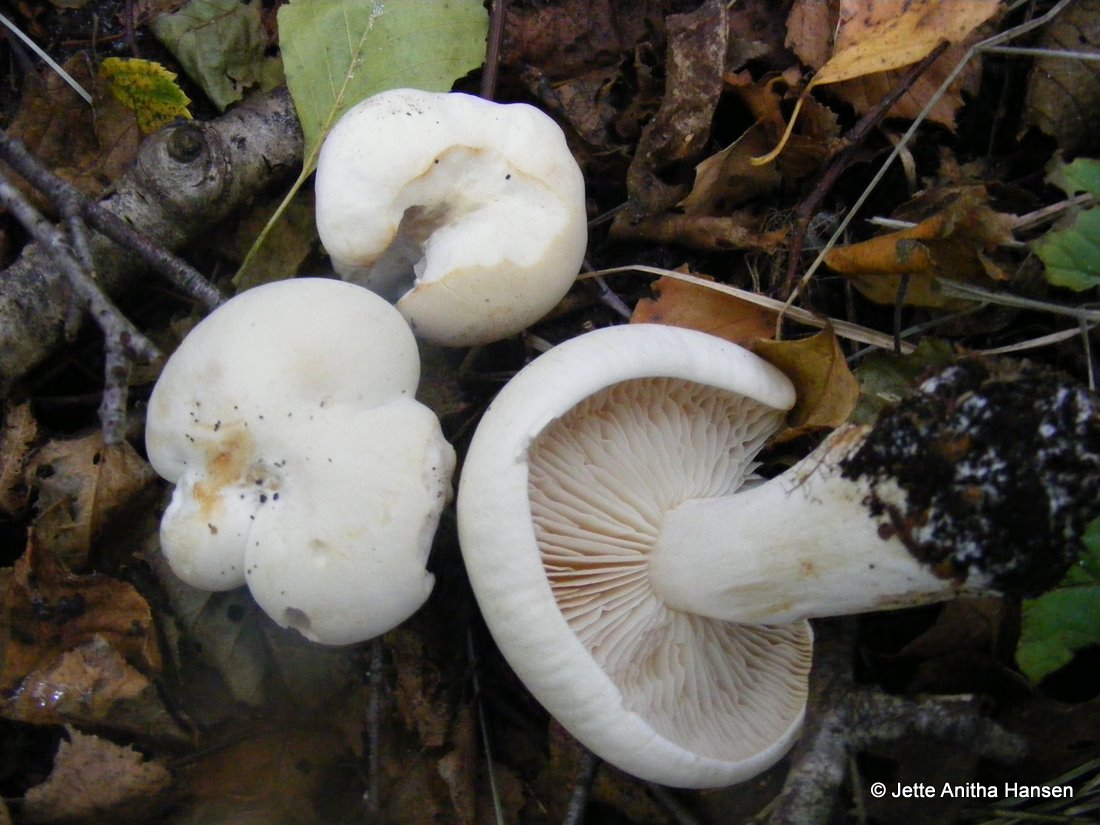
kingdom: Fungi
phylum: Basidiomycota
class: Agaricomycetes
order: Agaricales
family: Tricholomataceae
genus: Tricholoma
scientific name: Tricholoma stiparophyllum
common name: hvid ridderhat
